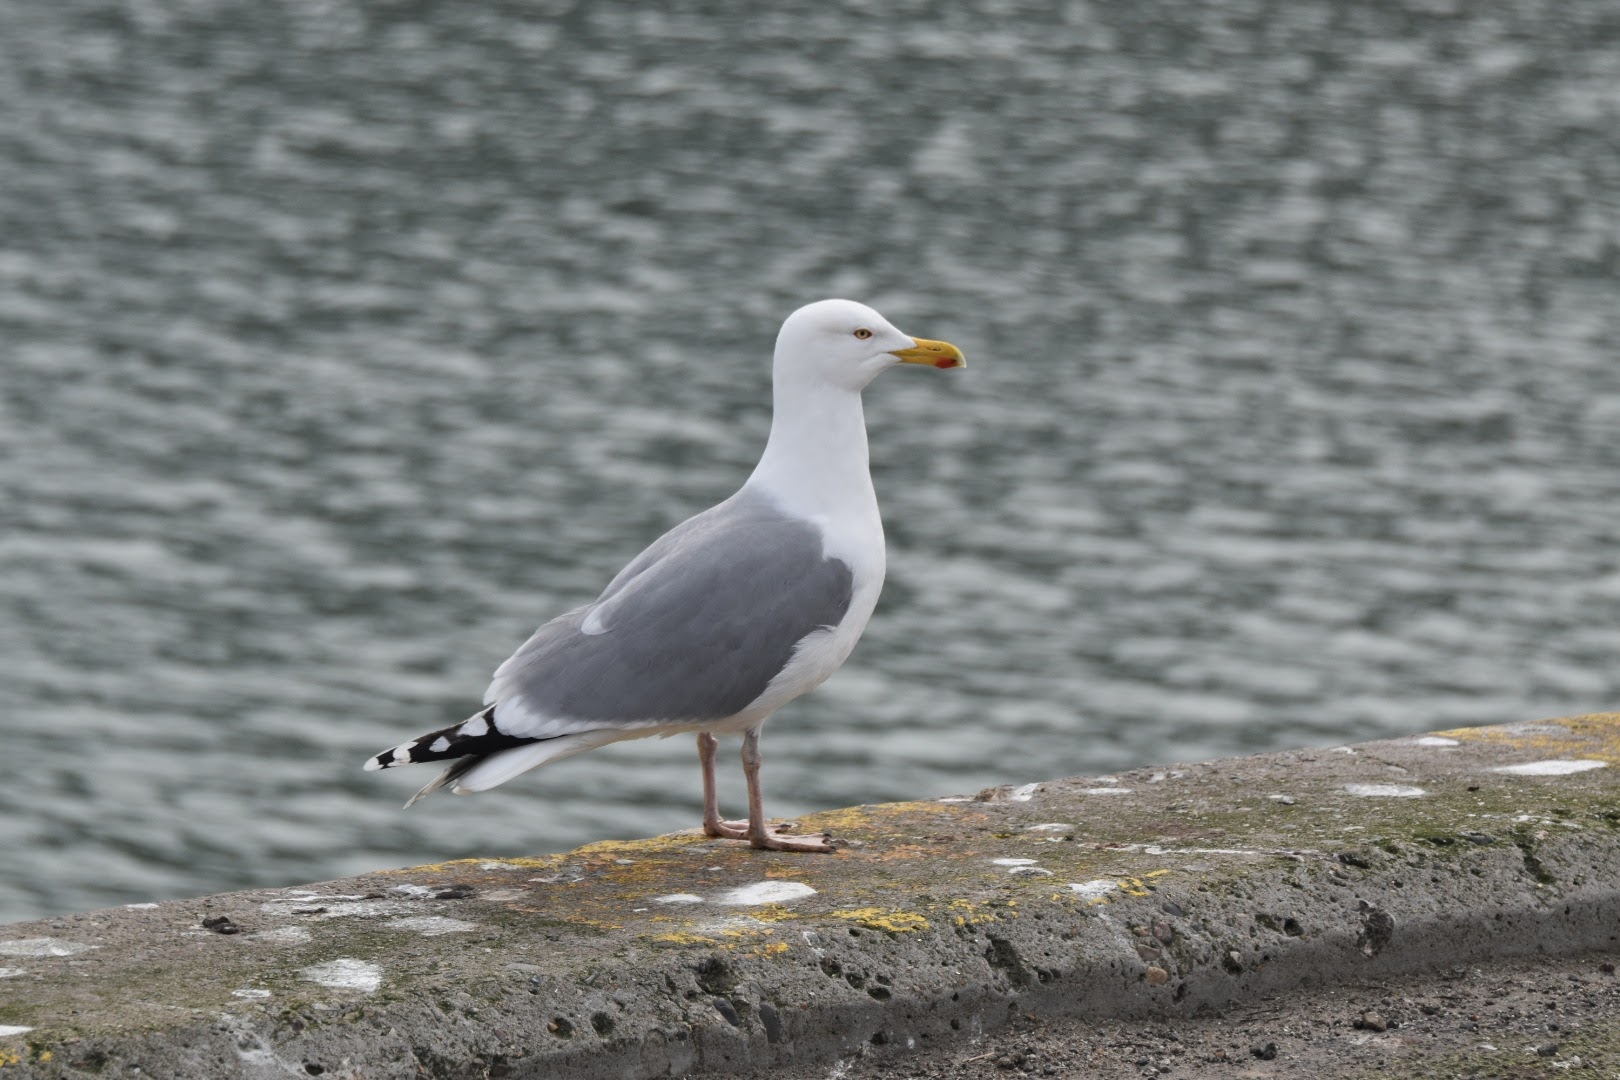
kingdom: Animalia
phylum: Chordata
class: Aves
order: Charadriiformes
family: Laridae
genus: Larus
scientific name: Larus argentatus
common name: Sølvmåge
